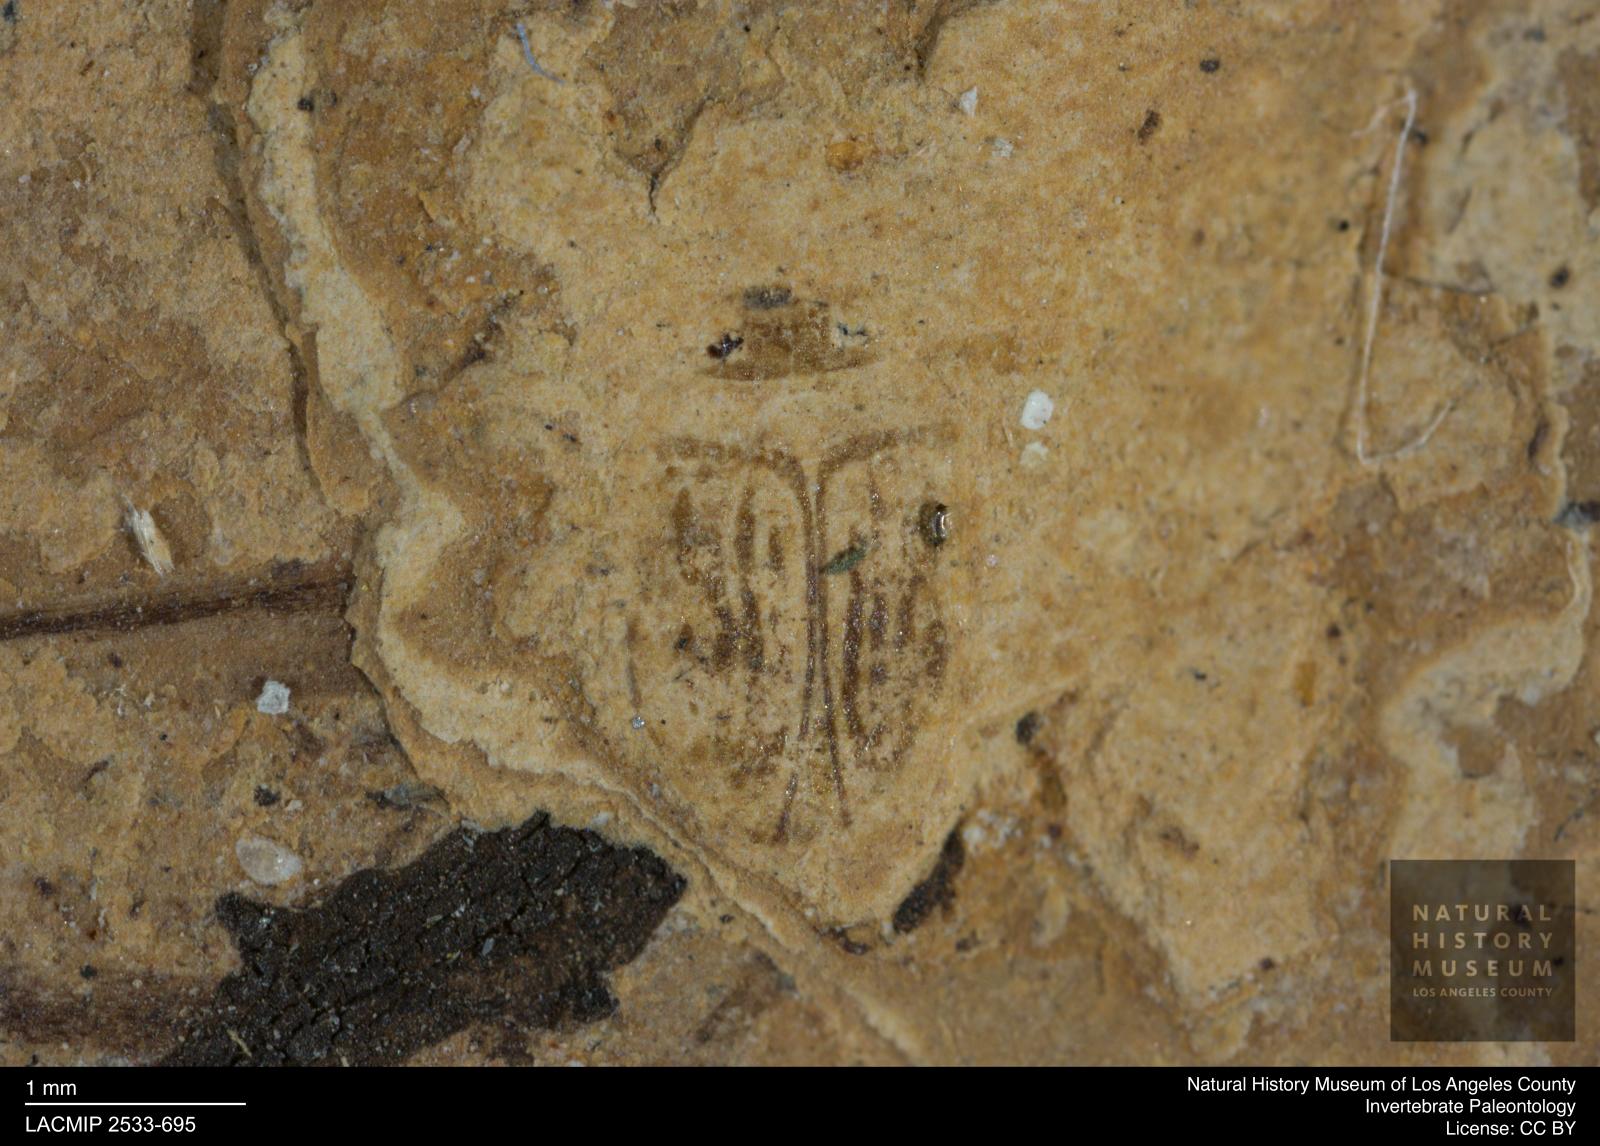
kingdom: Animalia
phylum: Arthropoda
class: Insecta
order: Coleoptera
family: Dytiscidae
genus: Oreodytes
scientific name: Oreodytes cryptolineatus
